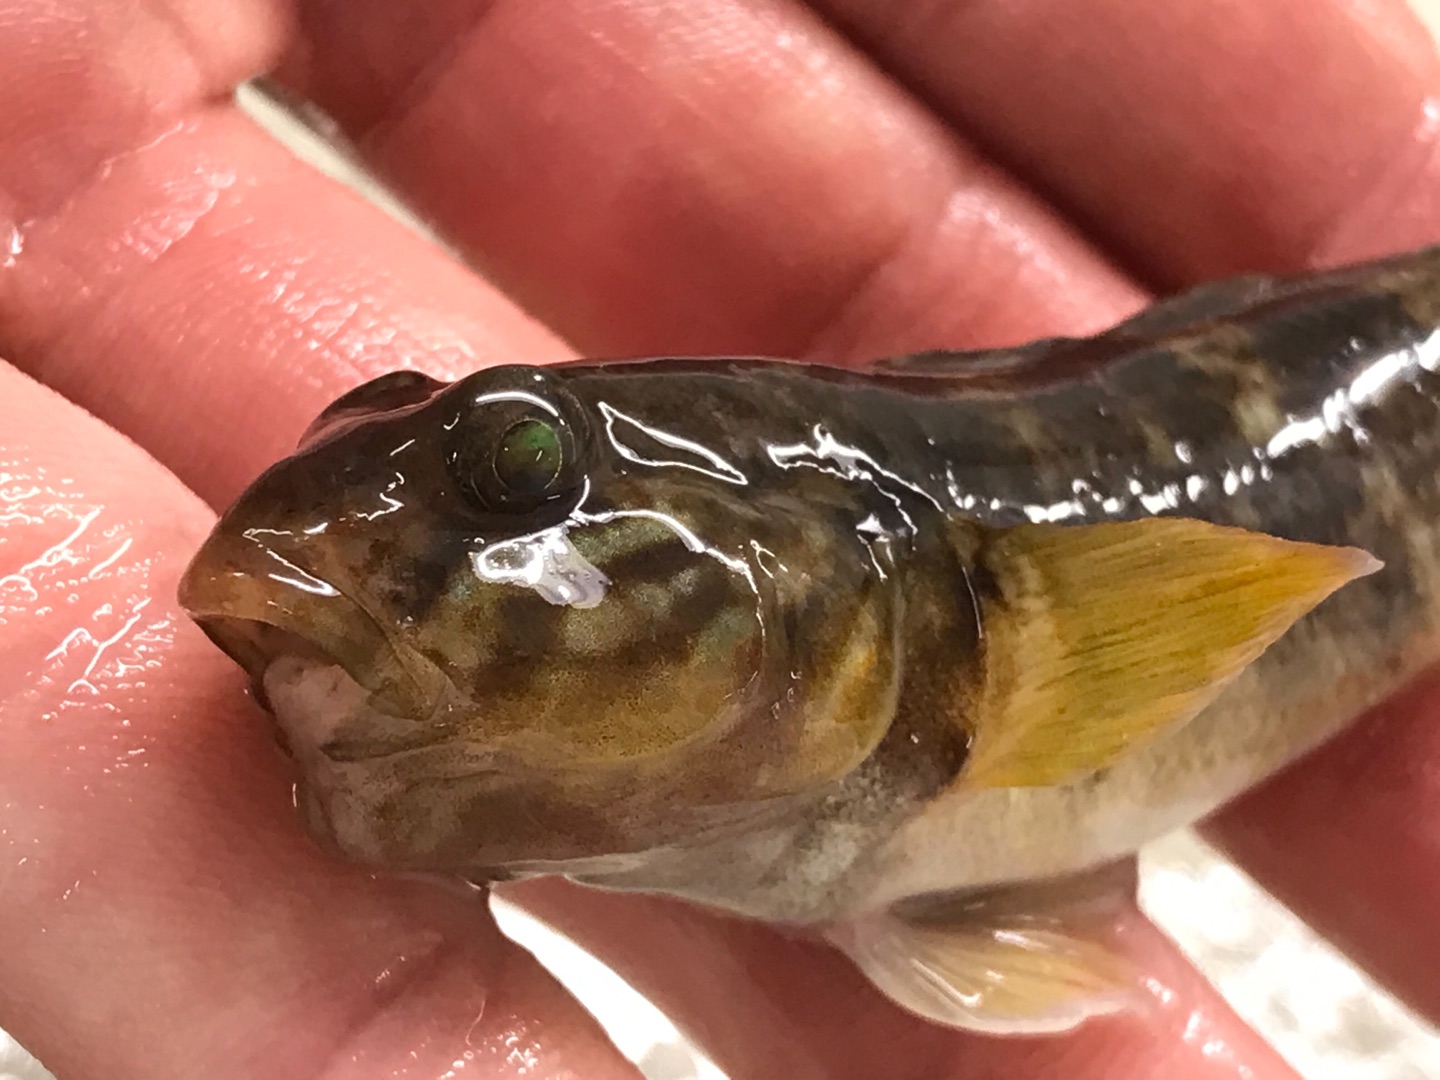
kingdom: Animalia
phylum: Chordata
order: Perciformes
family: Gobiidae
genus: Neogobius
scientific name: Neogobius melanostomus
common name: Sortmundet kutling
